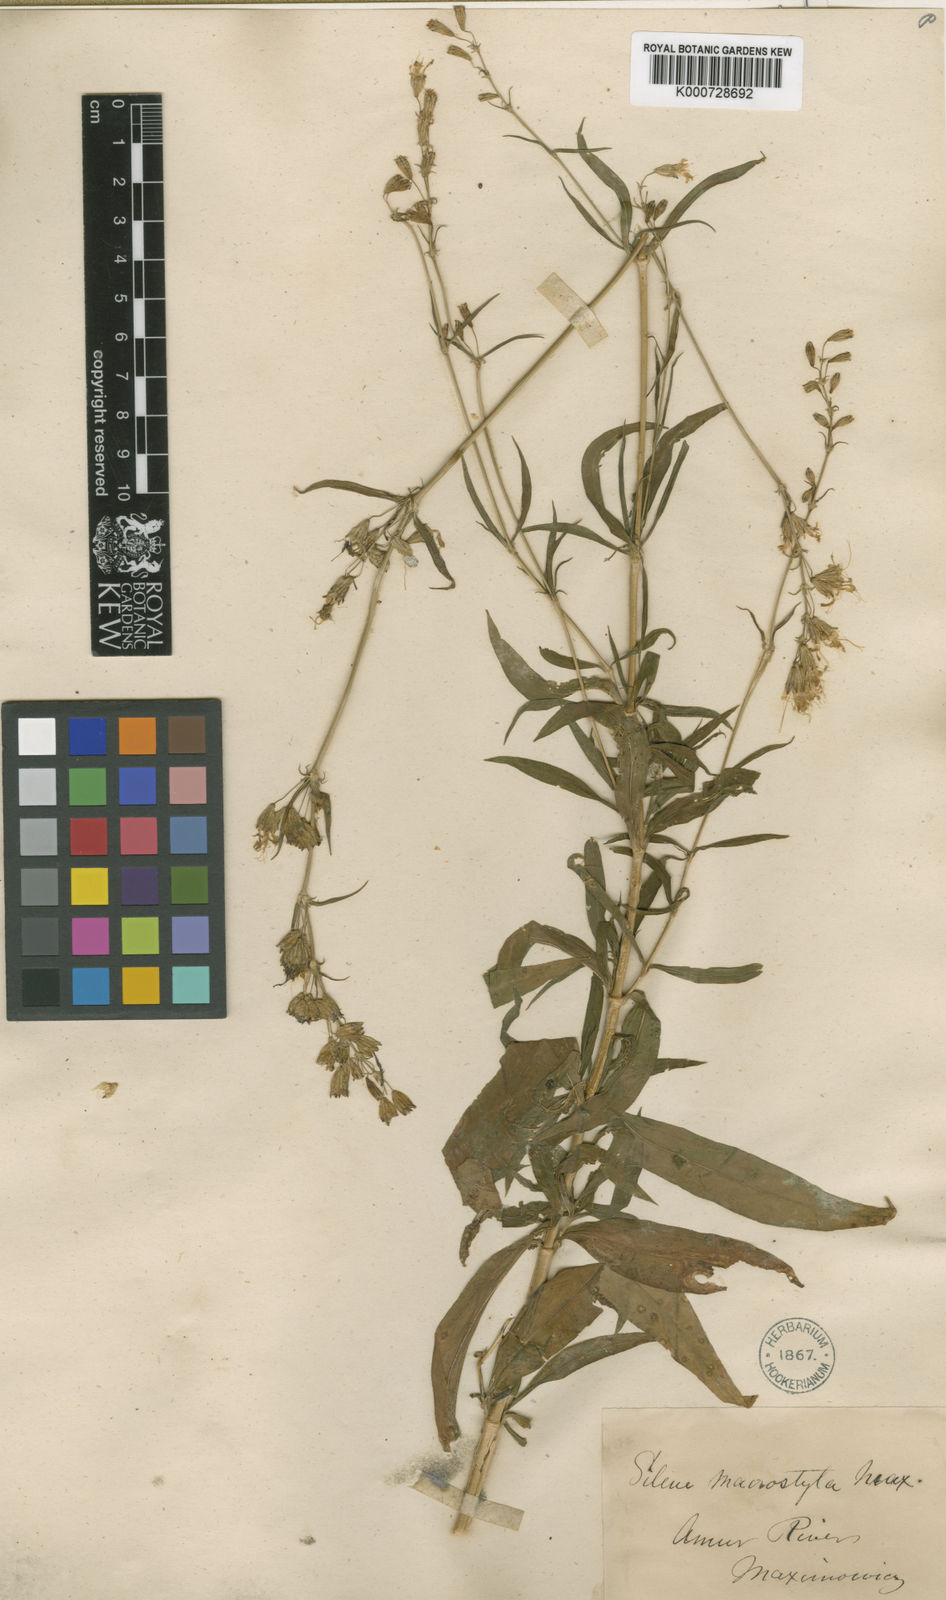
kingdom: Plantae
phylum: Tracheophyta
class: Magnoliopsida
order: Caryophyllales
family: Caryophyllaceae
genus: Silene
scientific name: Silene macrostyla
